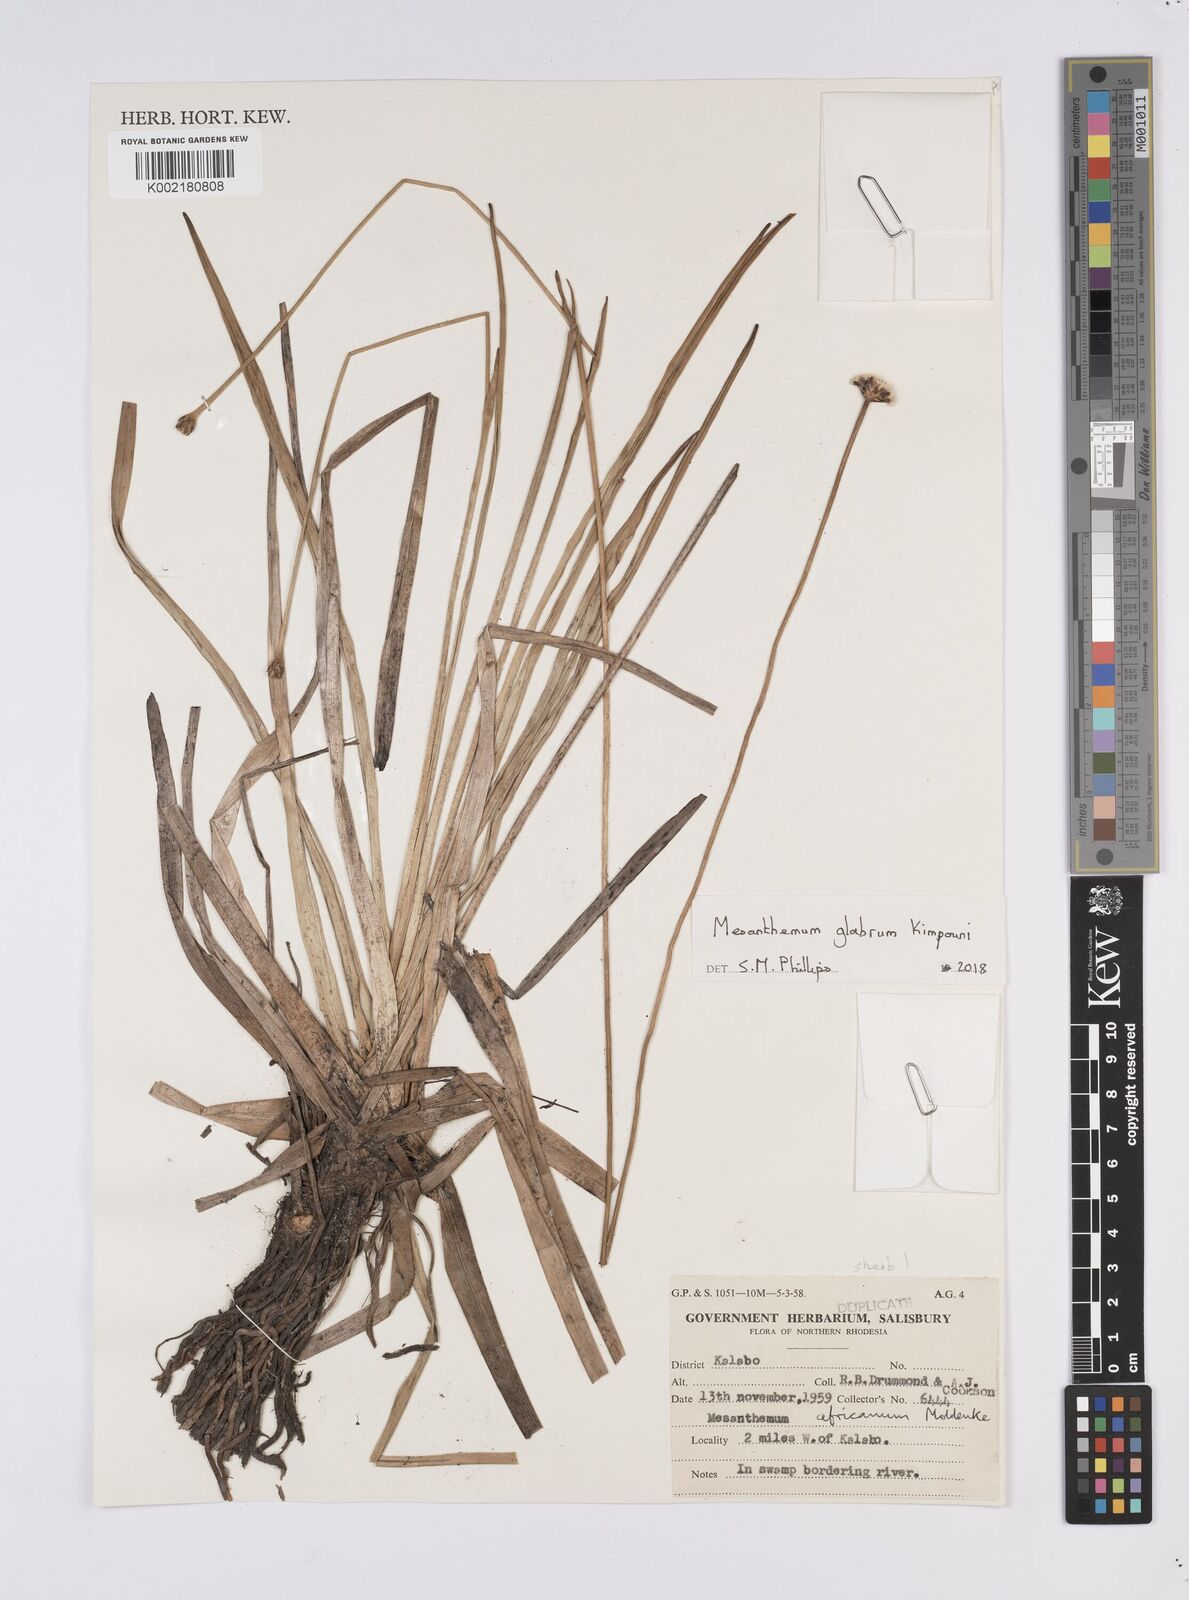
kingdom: Plantae
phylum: Tracheophyta
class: Liliopsida
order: Poales
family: Eriocaulaceae
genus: Mesanthemum
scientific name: Mesanthemum glabrum
